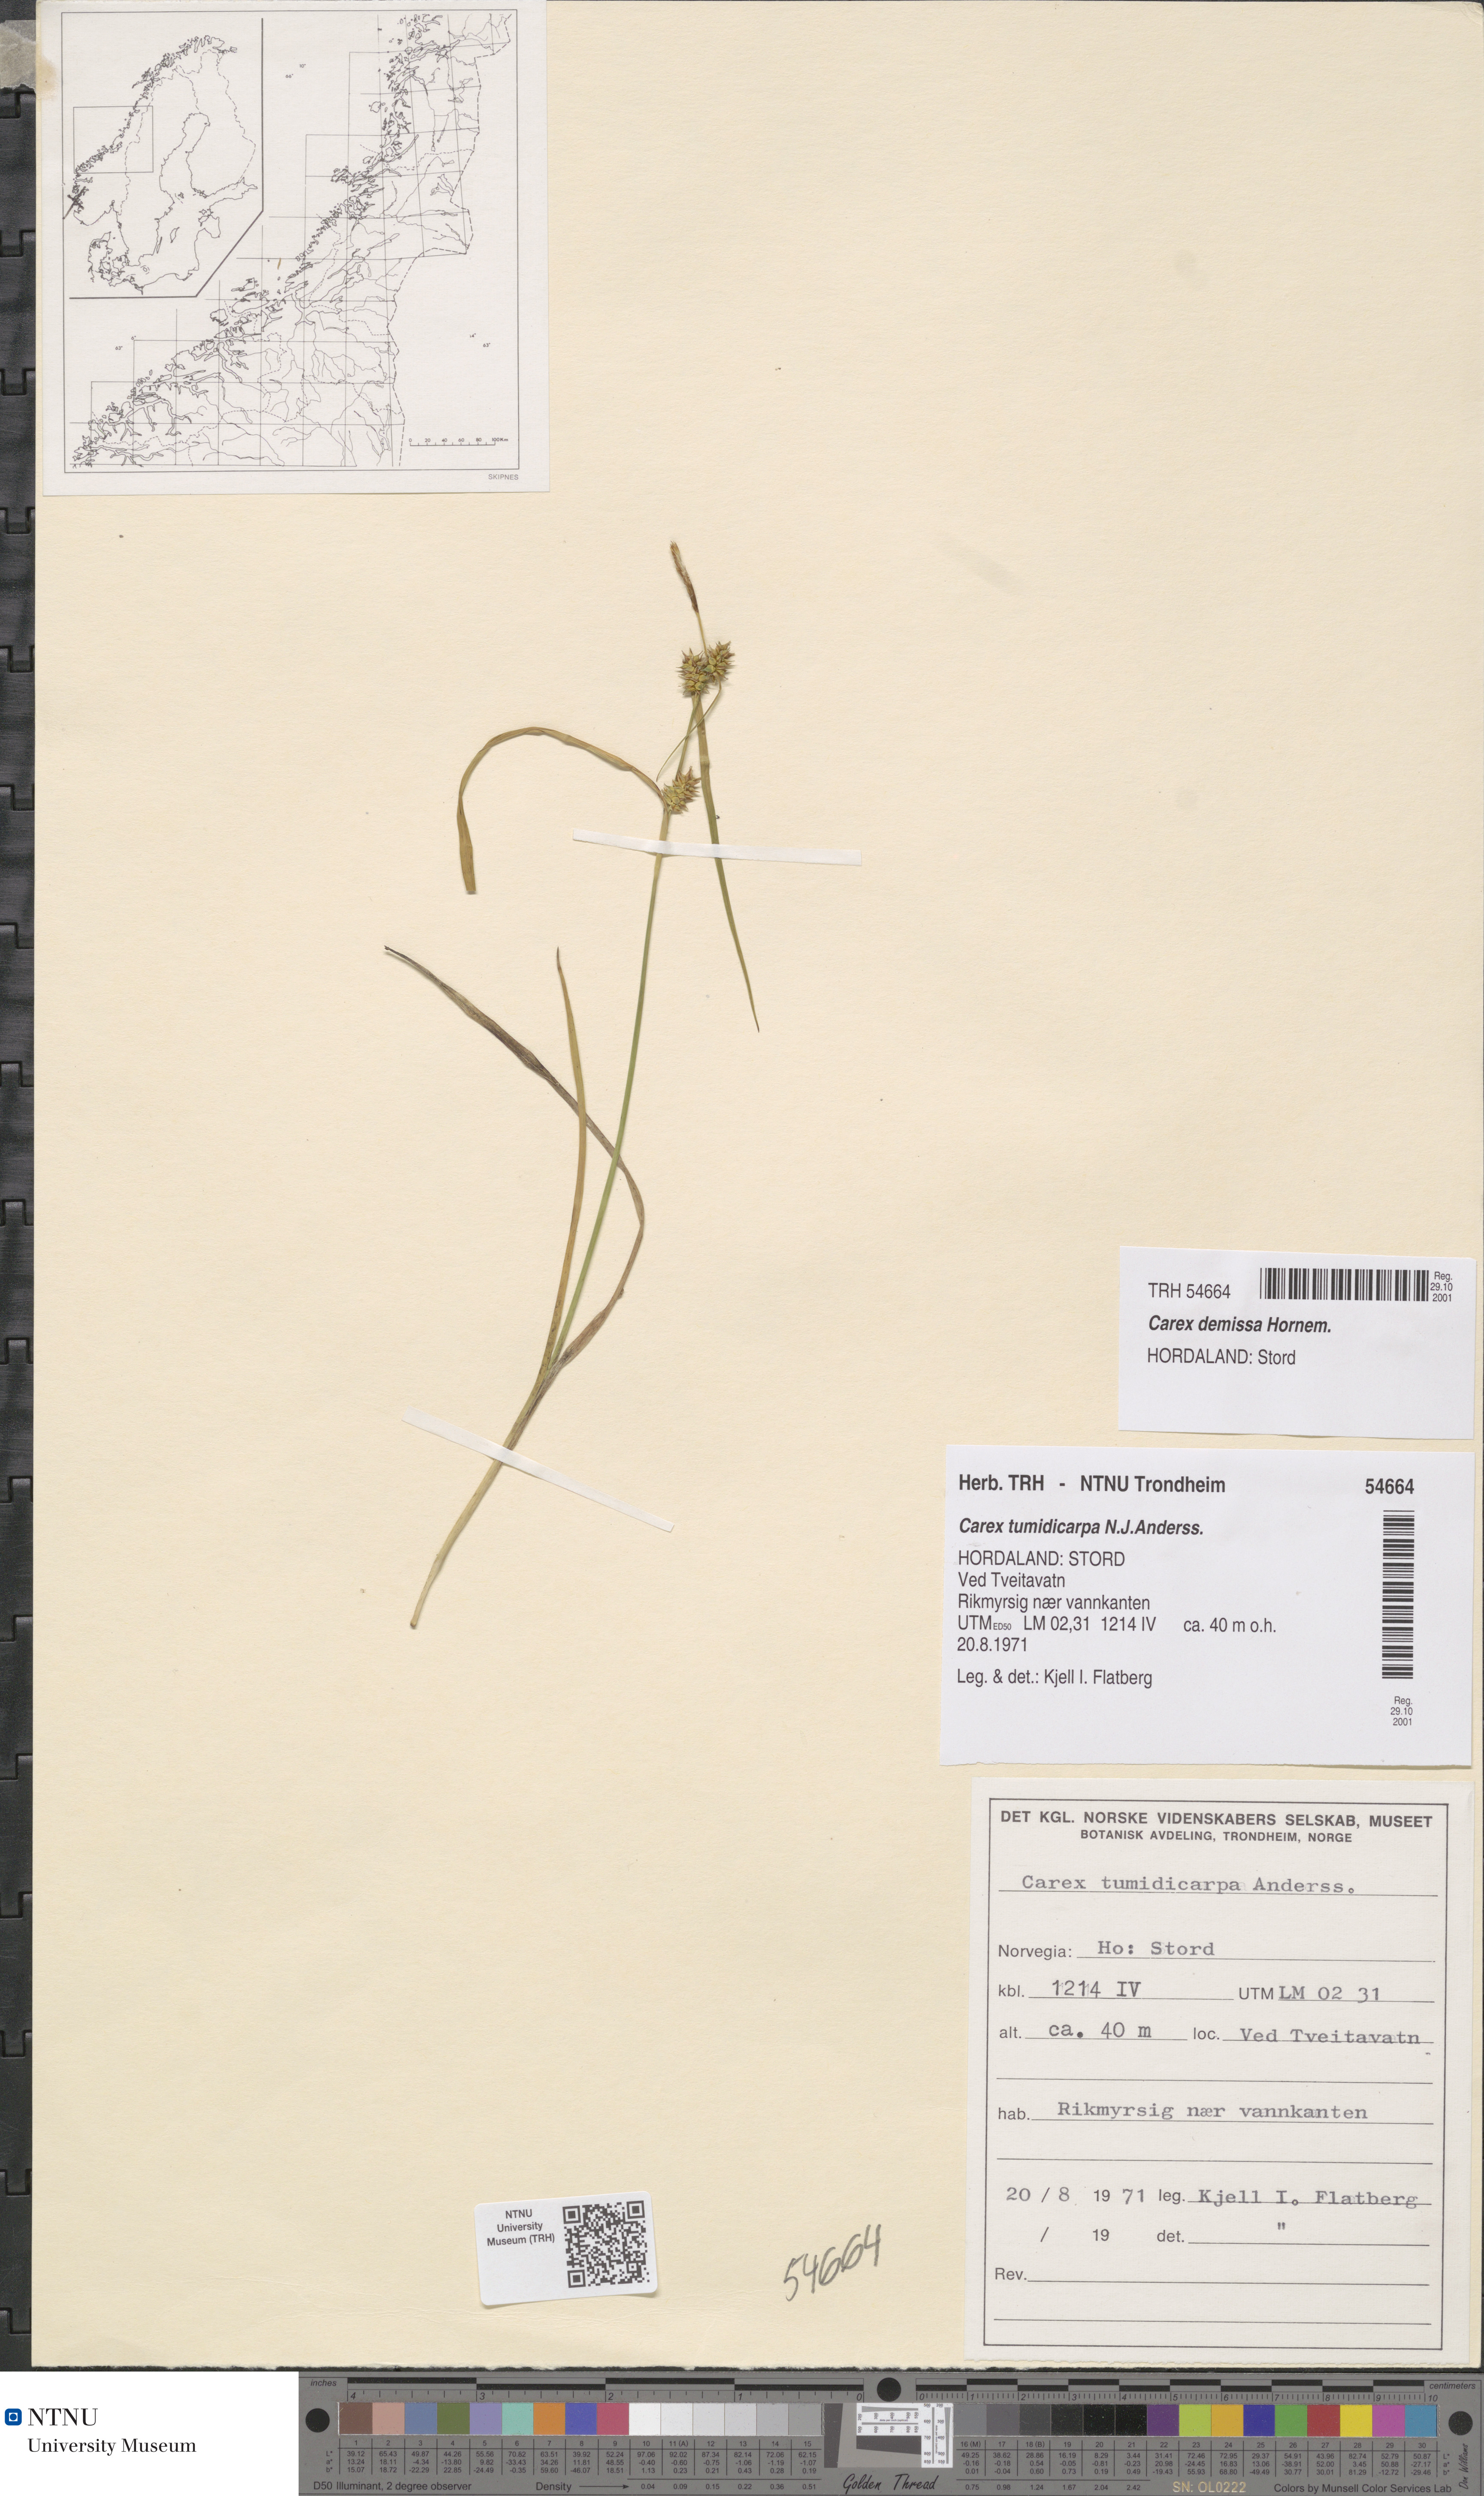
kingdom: Plantae
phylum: Tracheophyta
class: Liliopsida
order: Poales
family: Cyperaceae
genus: Carex
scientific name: Carex demissa
